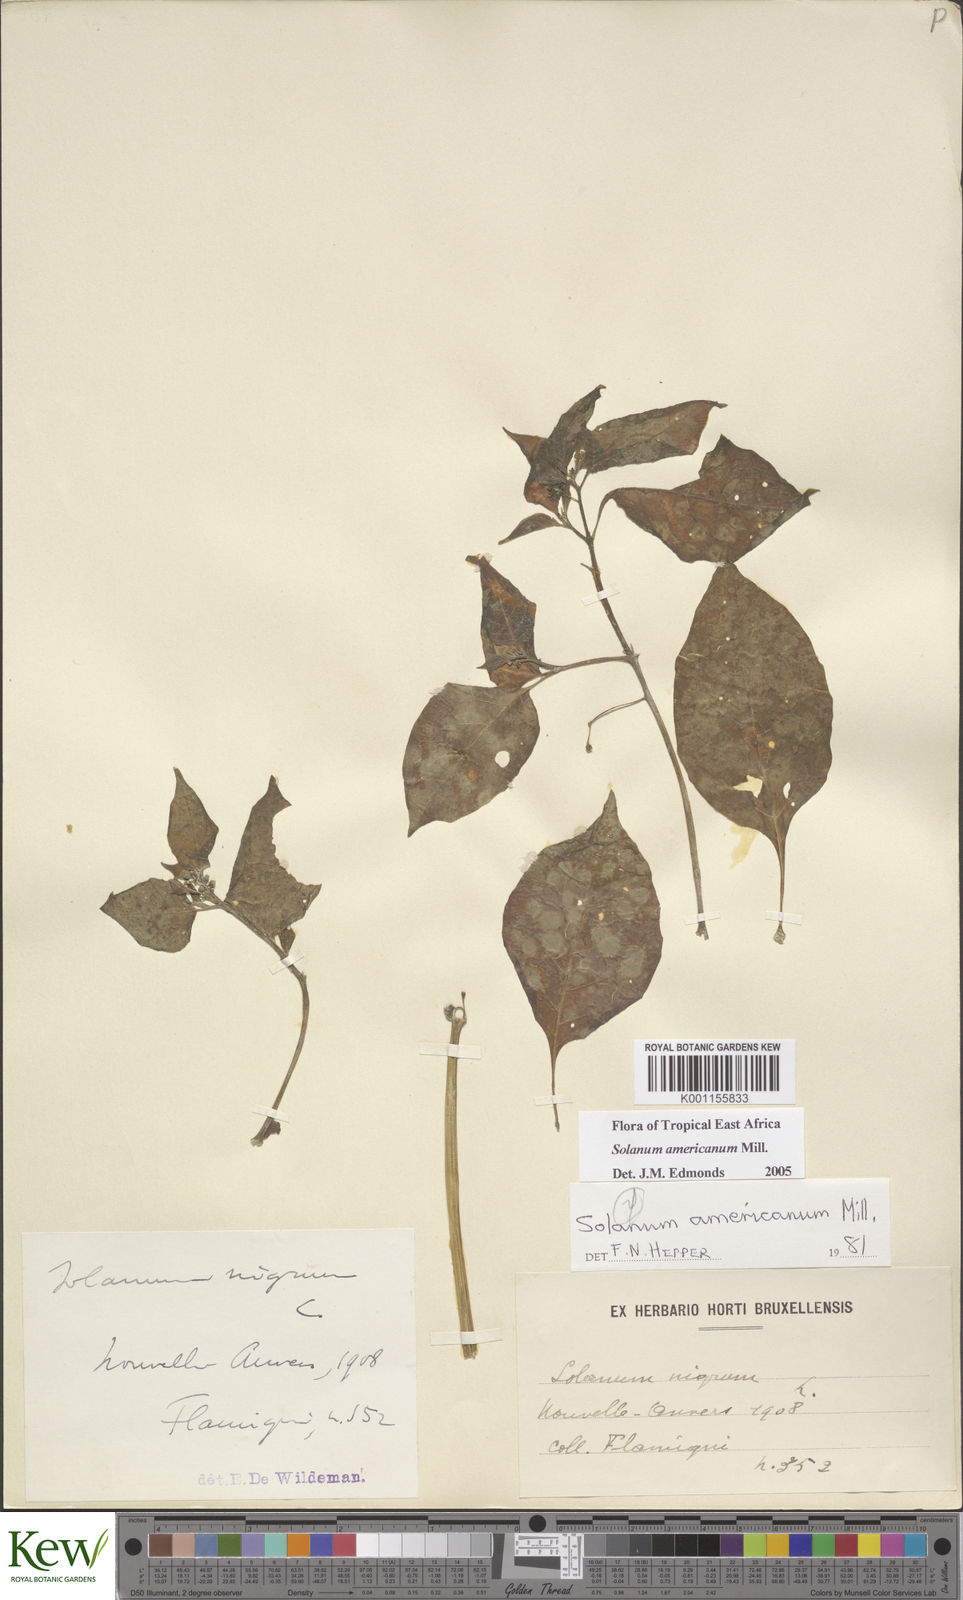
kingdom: Plantae
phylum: Tracheophyta
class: Magnoliopsida
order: Solanales
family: Solanaceae
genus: Solanum
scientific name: Solanum scabrum
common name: Garden-huckleberry
